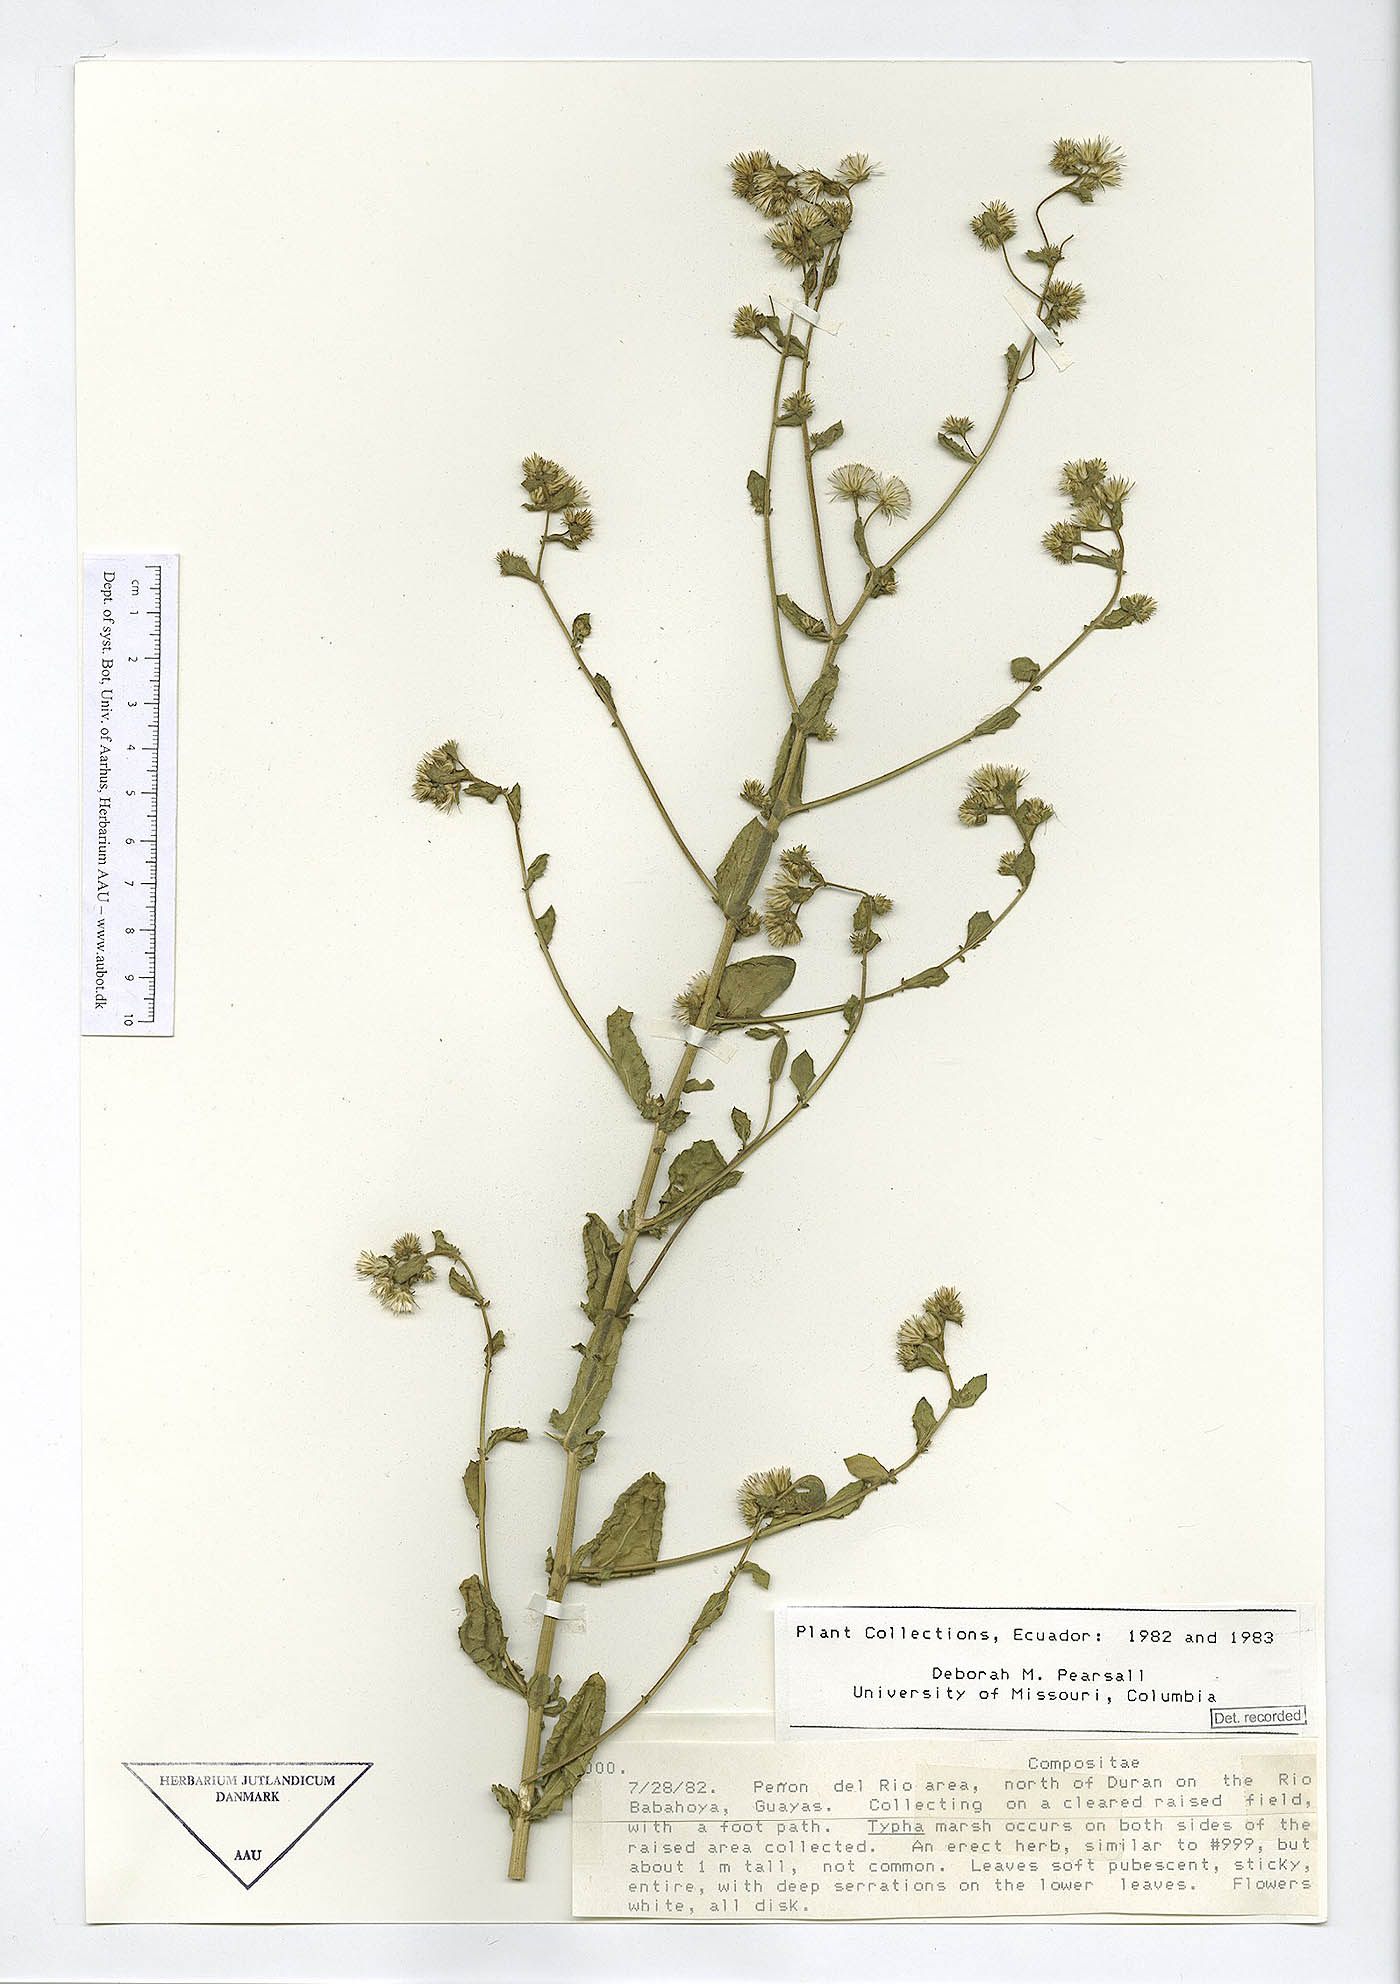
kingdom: Plantae
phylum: Tracheophyta
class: Magnoliopsida
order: Asterales
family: Asteraceae
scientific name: Asteraceae
